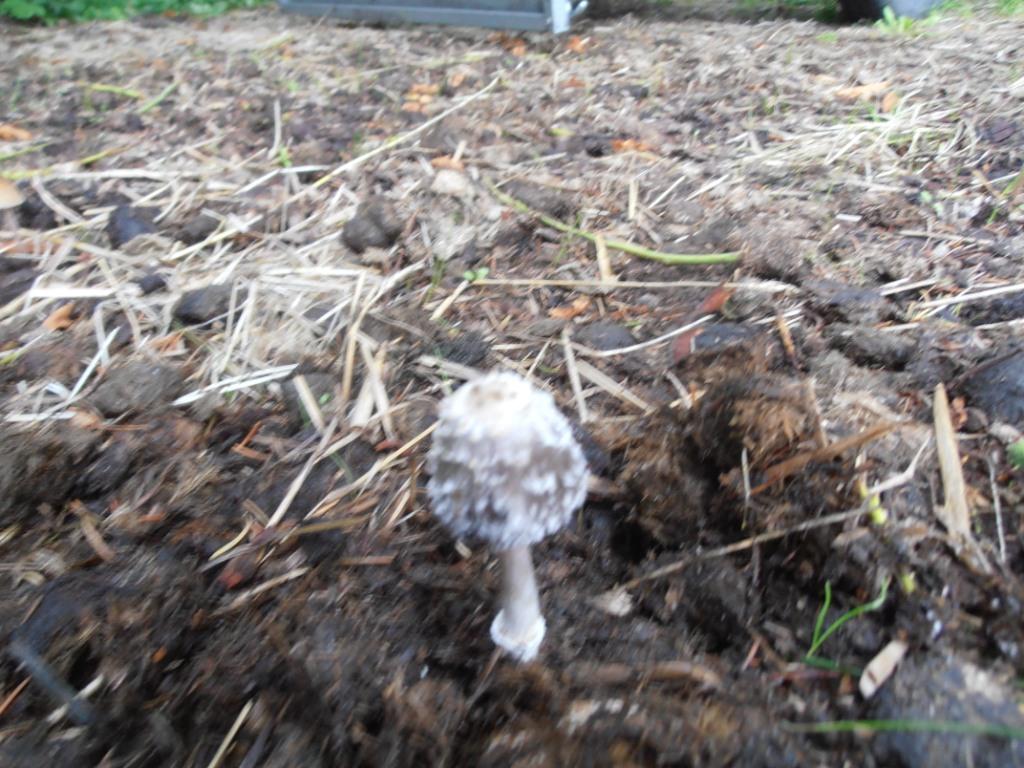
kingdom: Fungi
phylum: Basidiomycota
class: Agaricomycetes
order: Agaricales
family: Agaricaceae
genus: Coprinus
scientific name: Coprinus sterquilinus
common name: møg-parykhat
